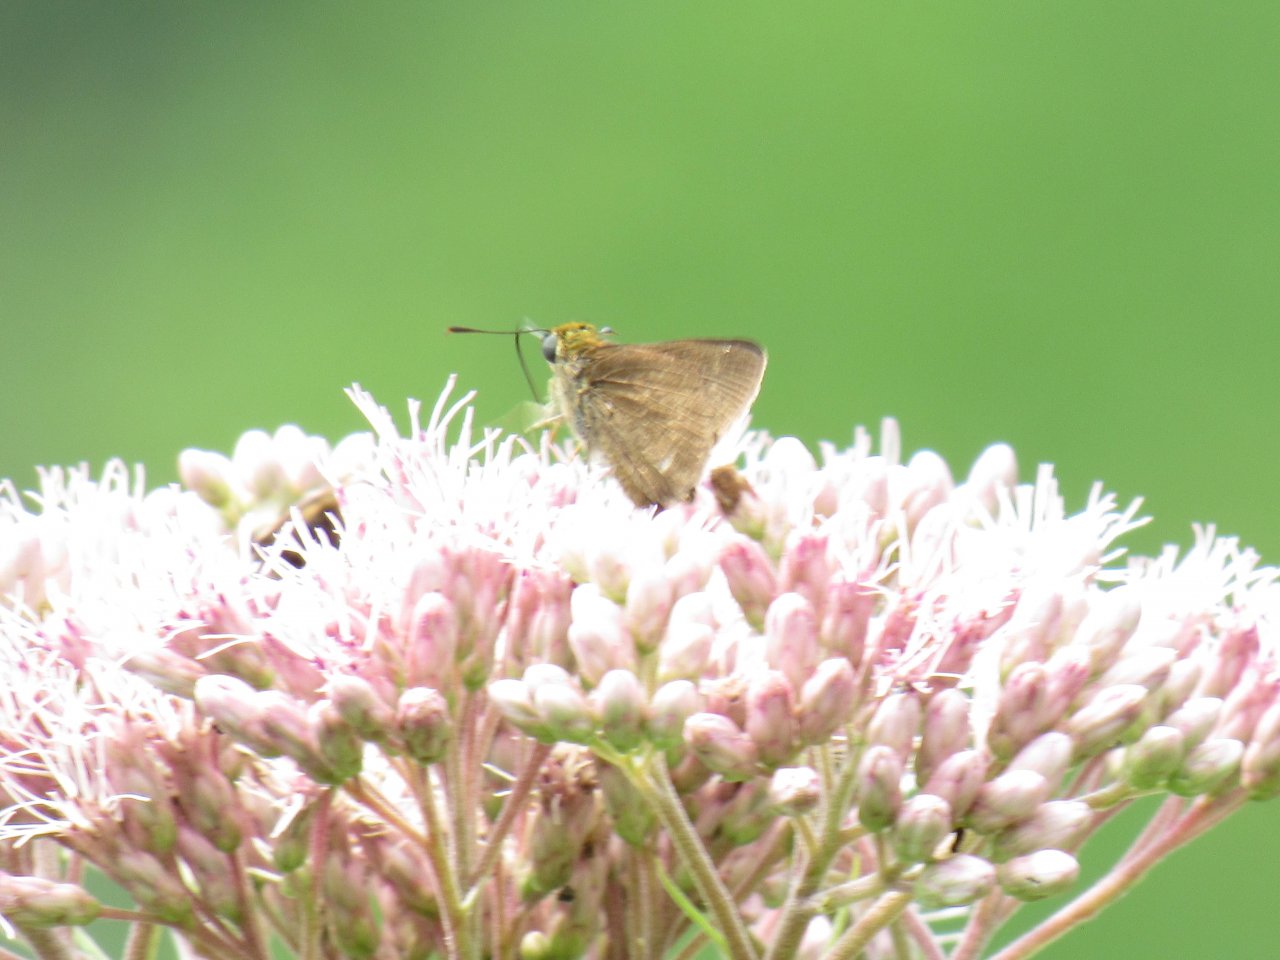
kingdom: Animalia
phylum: Arthropoda
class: Insecta
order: Lepidoptera
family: Hesperiidae
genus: Euphyes
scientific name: Euphyes
